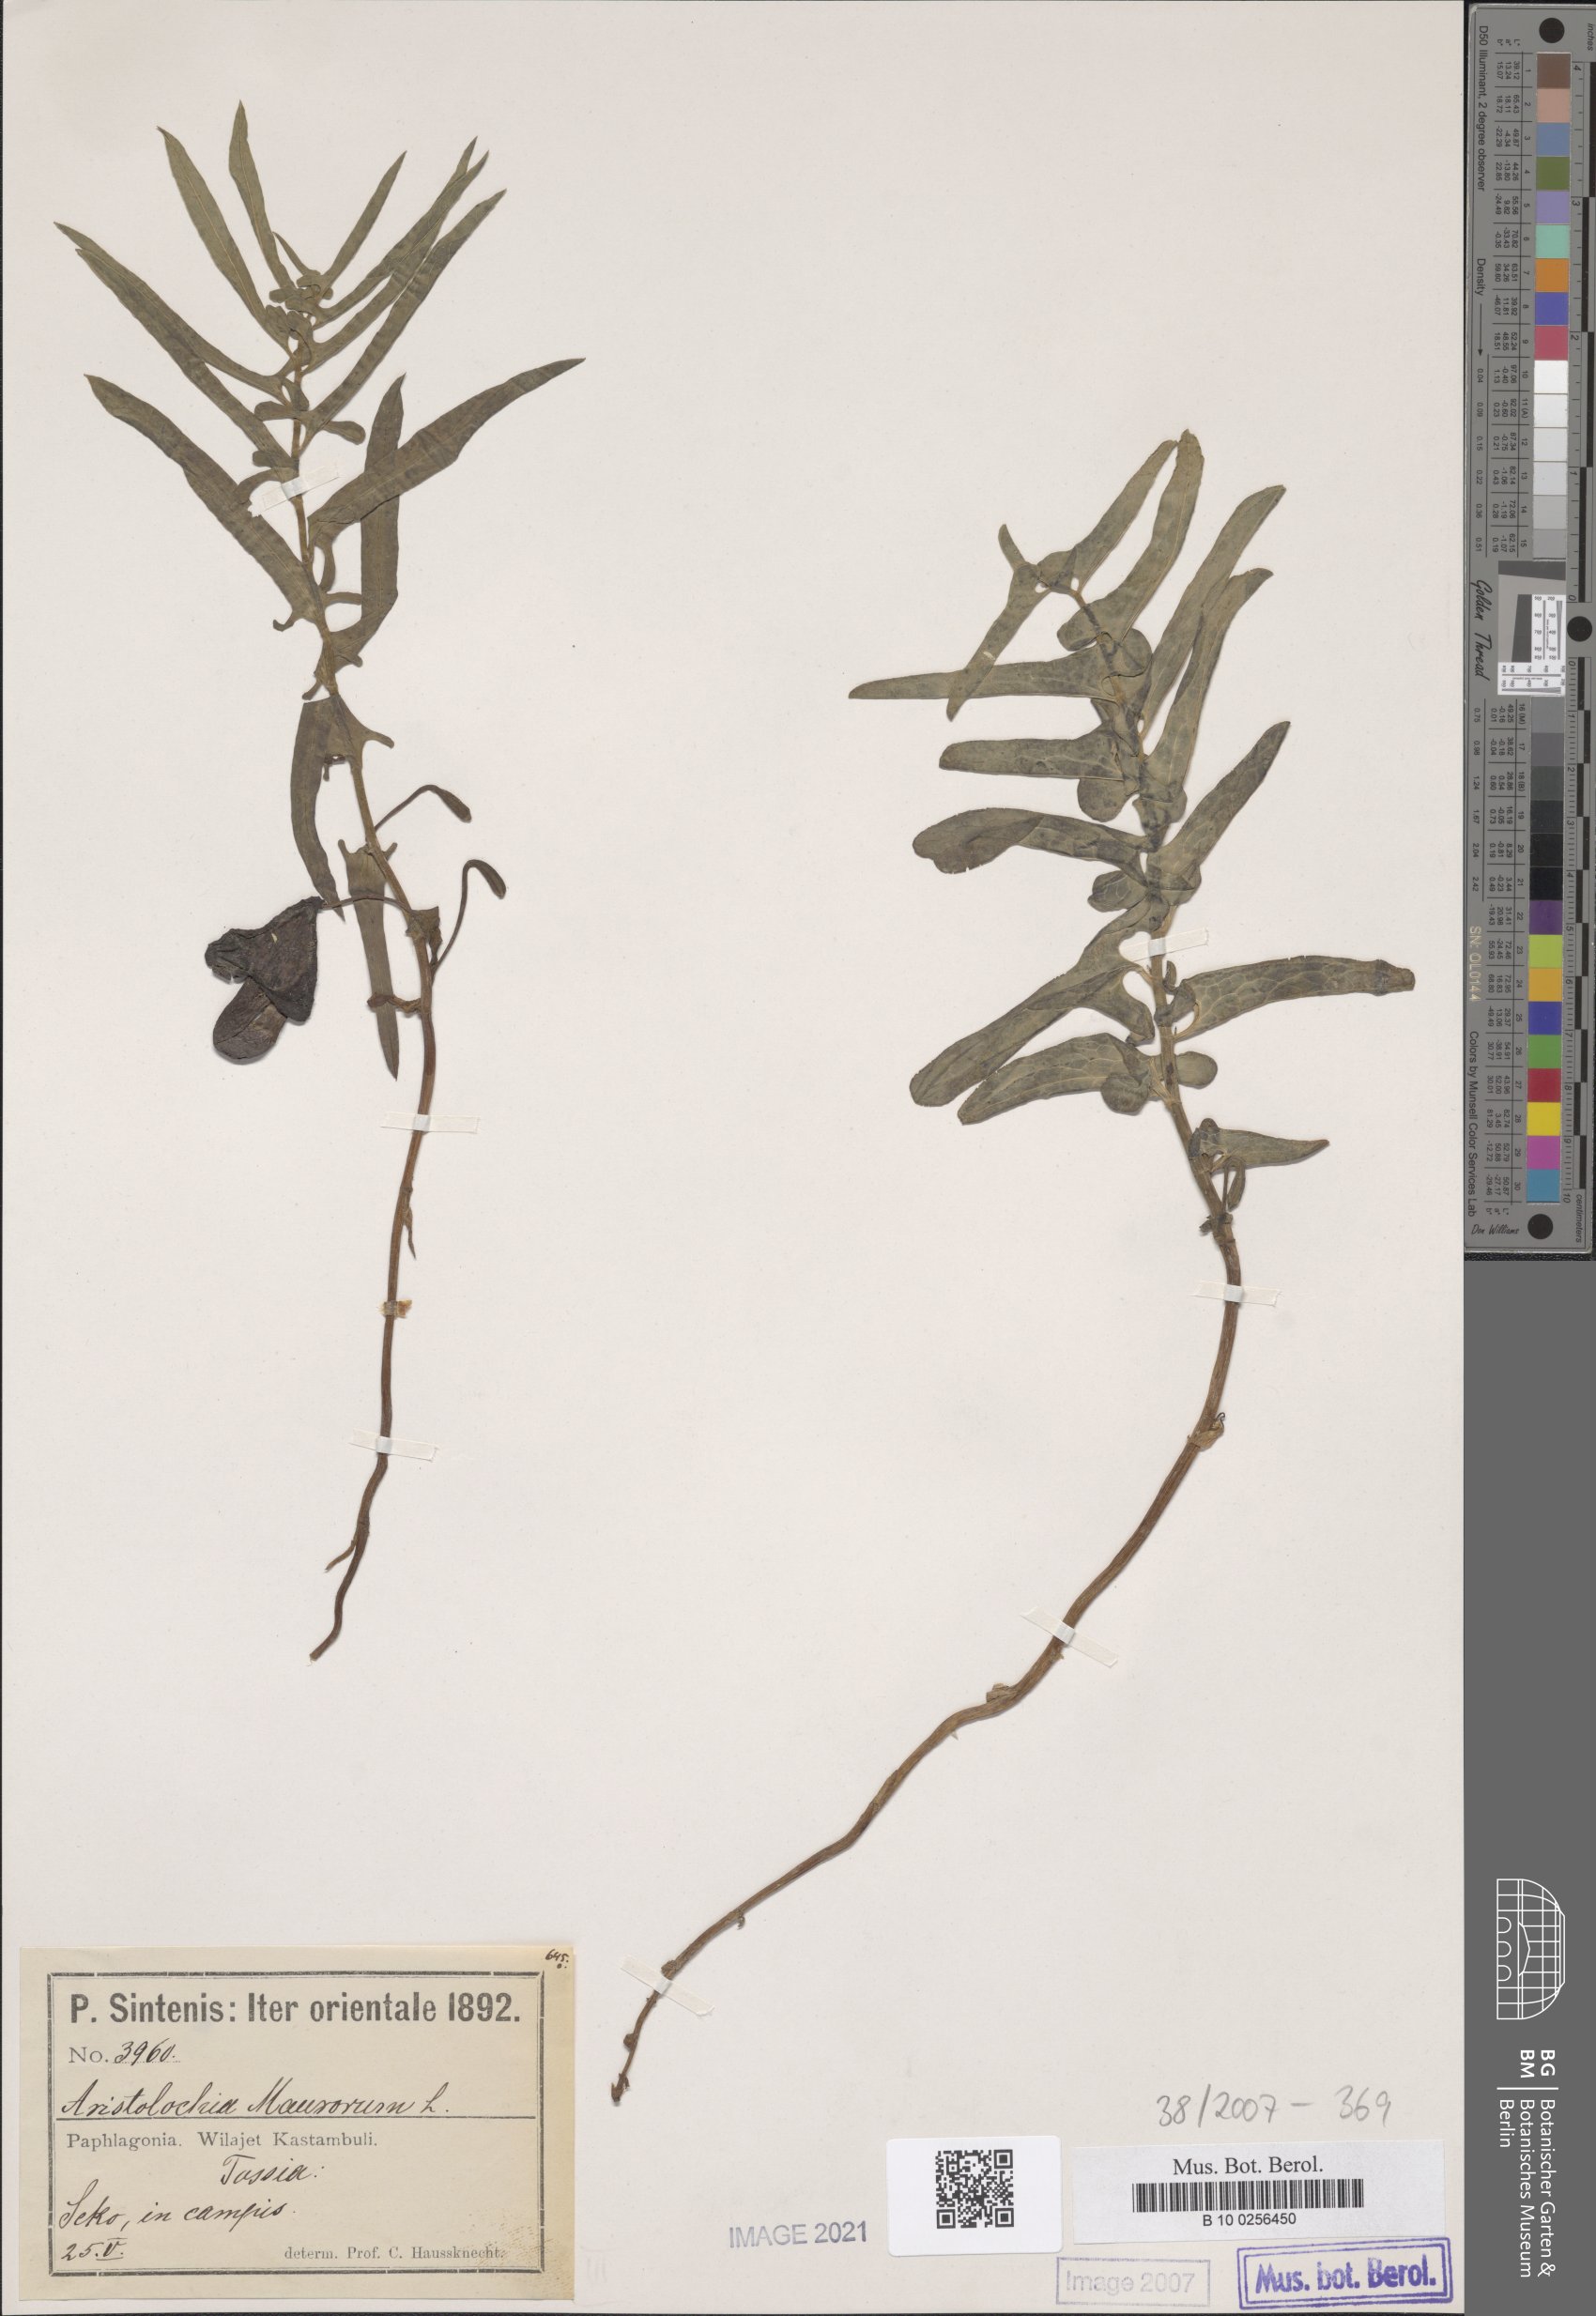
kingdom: Plantae
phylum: Tracheophyta
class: Magnoliopsida
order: Piperales
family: Aristolochiaceae
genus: Aristolochia
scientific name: Aristolochia maurorum
